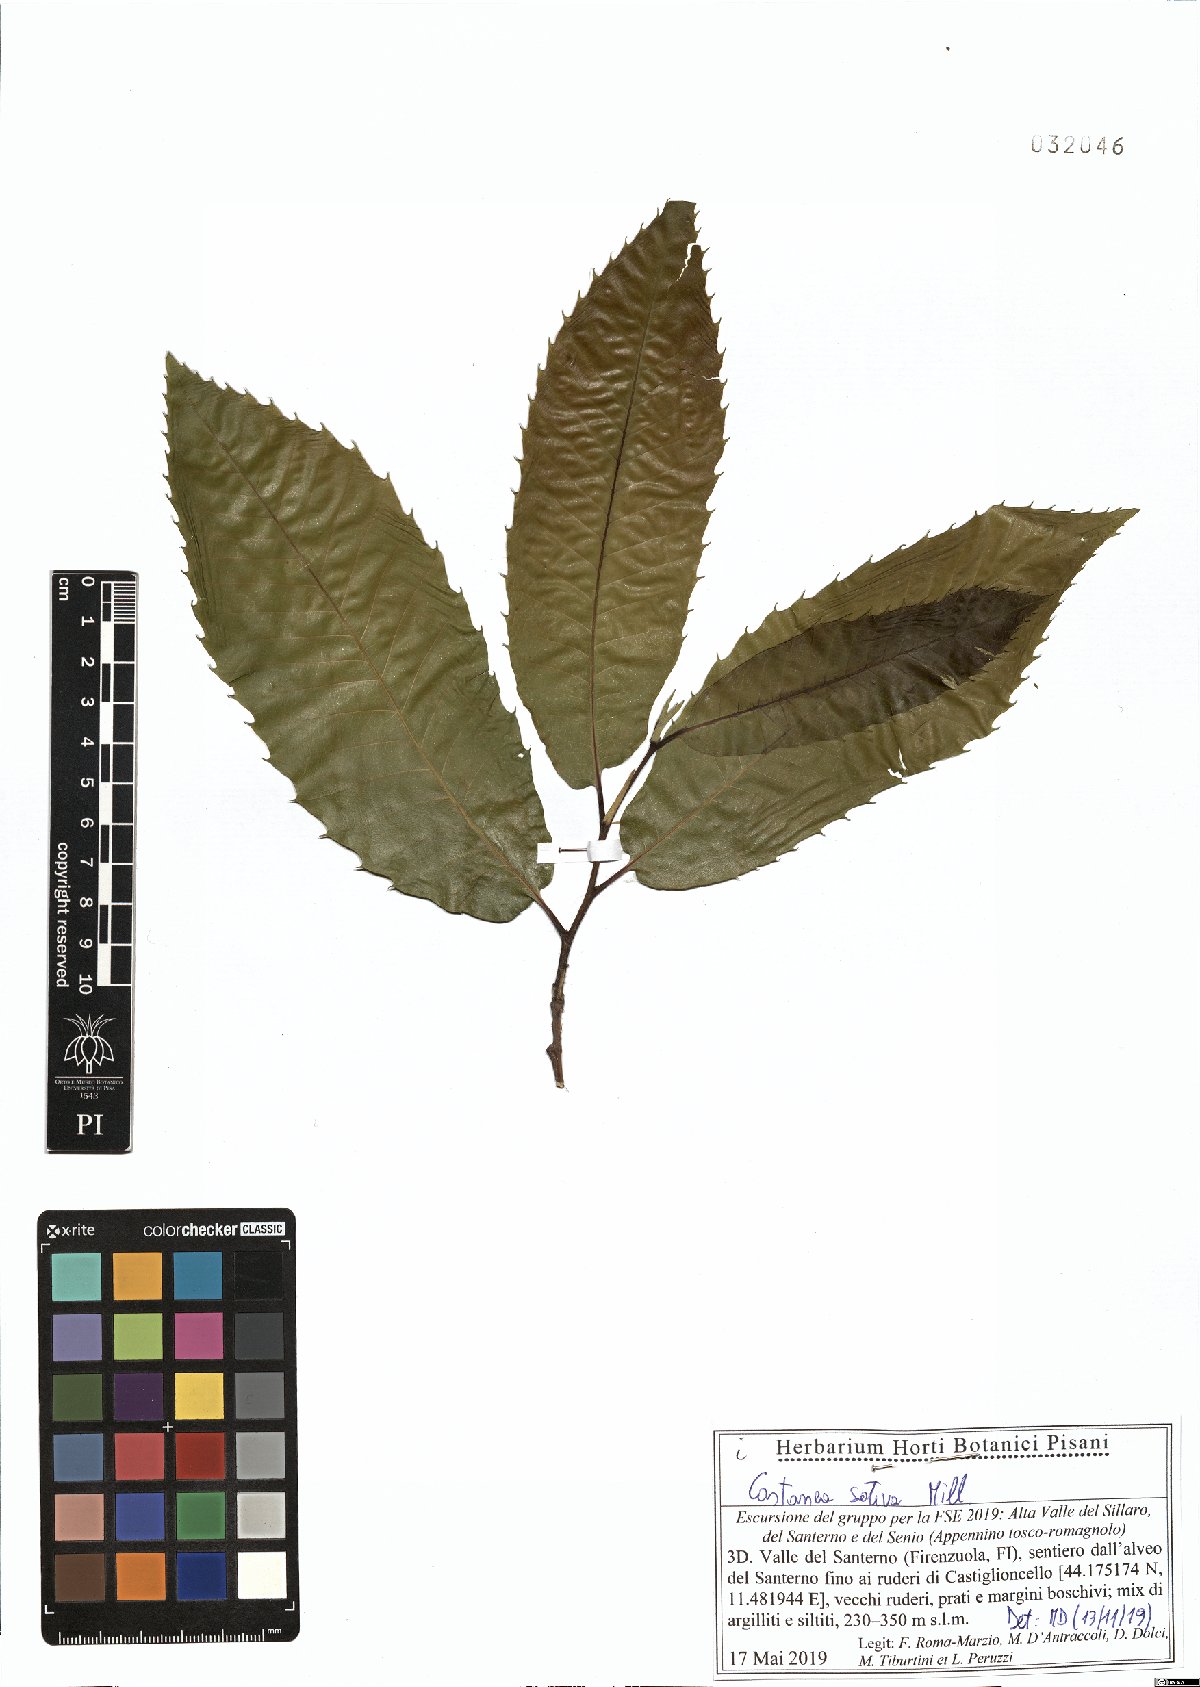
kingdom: Plantae
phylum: Tracheophyta
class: Magnoliopsida
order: Fagales
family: Fagaceae
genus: Castanea
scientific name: Castanea sativa
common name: Sweet chestnut
